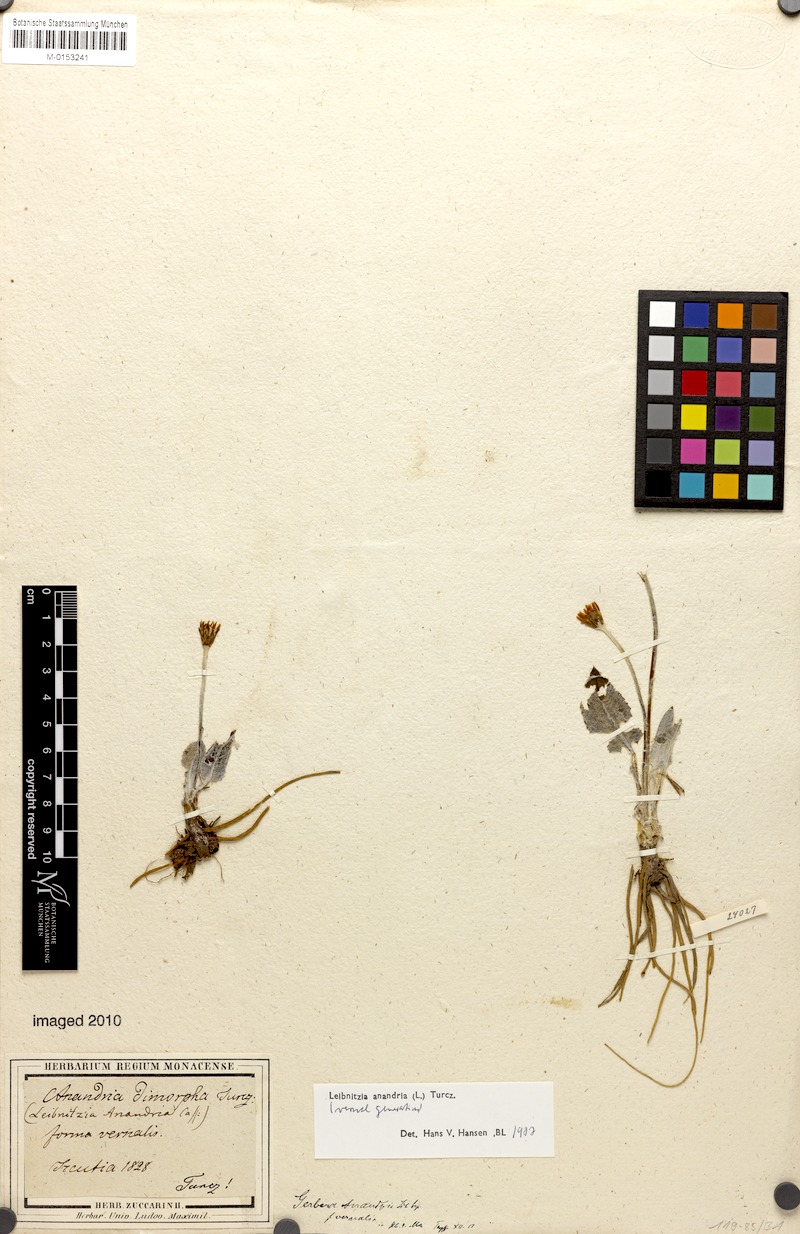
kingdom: Plantae
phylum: Tracheophyta
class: Magnoliopsida
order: Asterales
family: Asteraceae
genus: Leibnitzia
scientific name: Leibnitzia anandria
